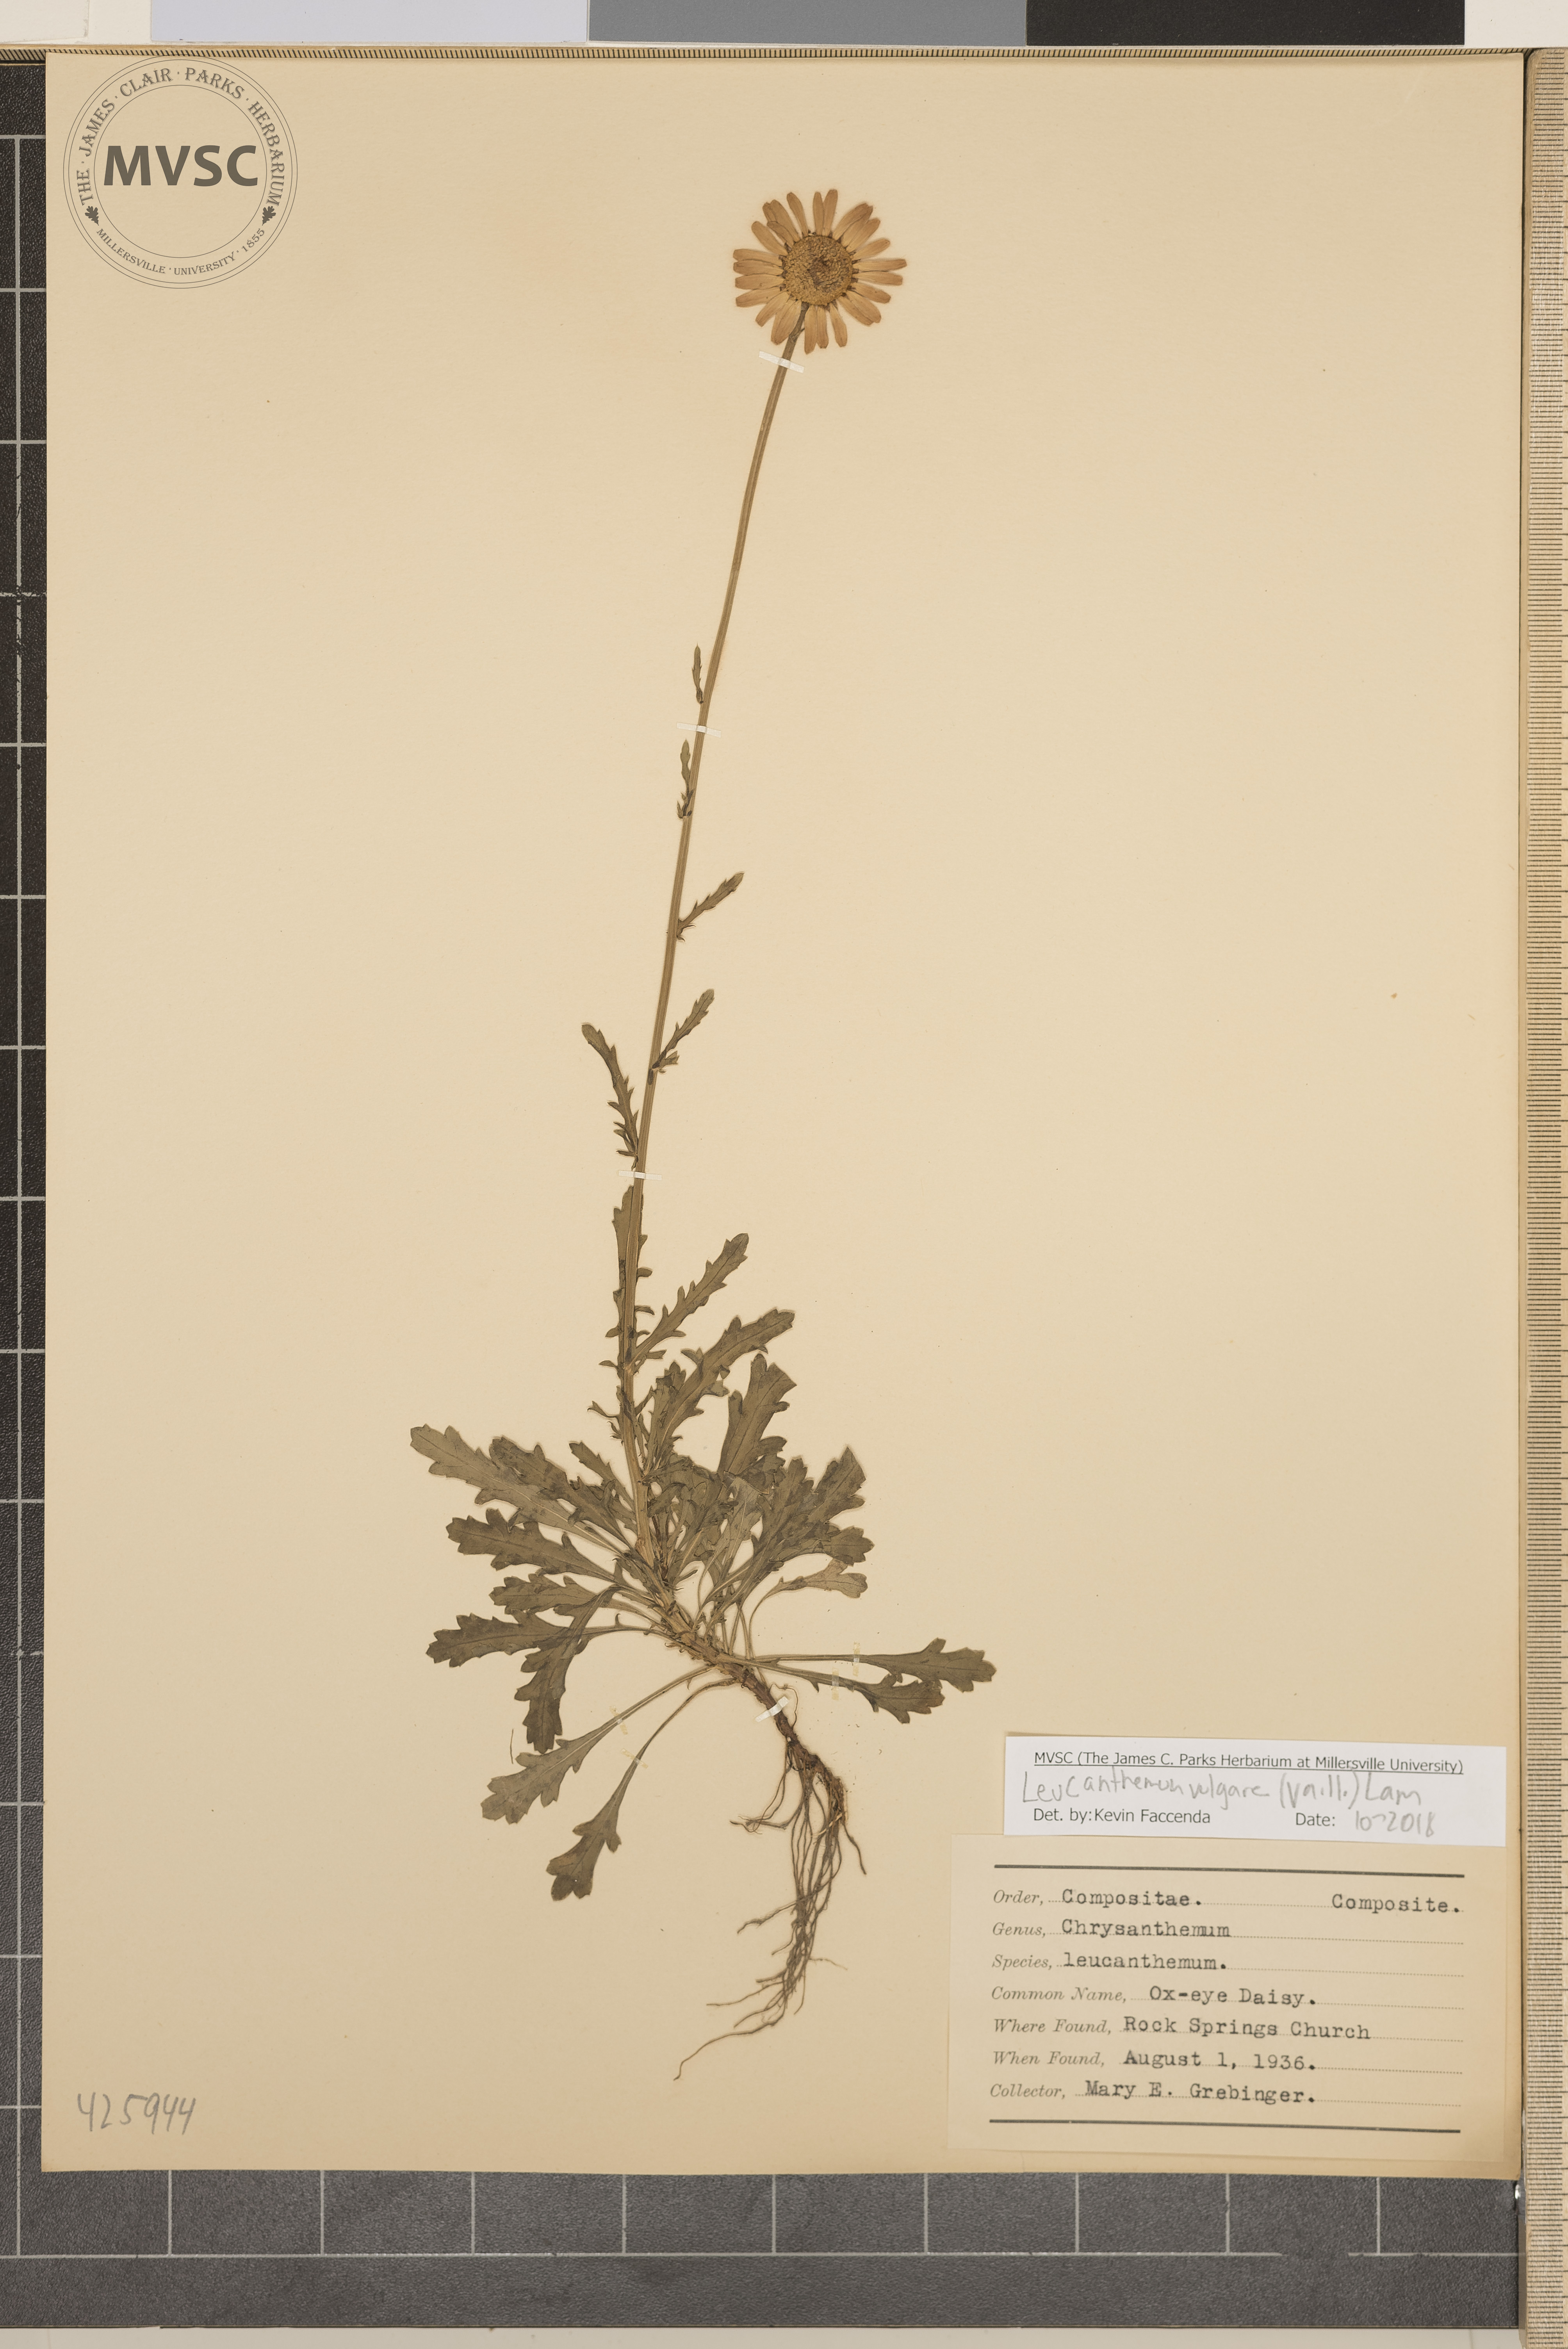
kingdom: Plantae
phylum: Tracheophyta
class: Magnoliopsida
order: Asterales
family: Asteraceae
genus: Leucanthemum
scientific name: Leucanthemum vulgare
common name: Ox-eye Daisy
